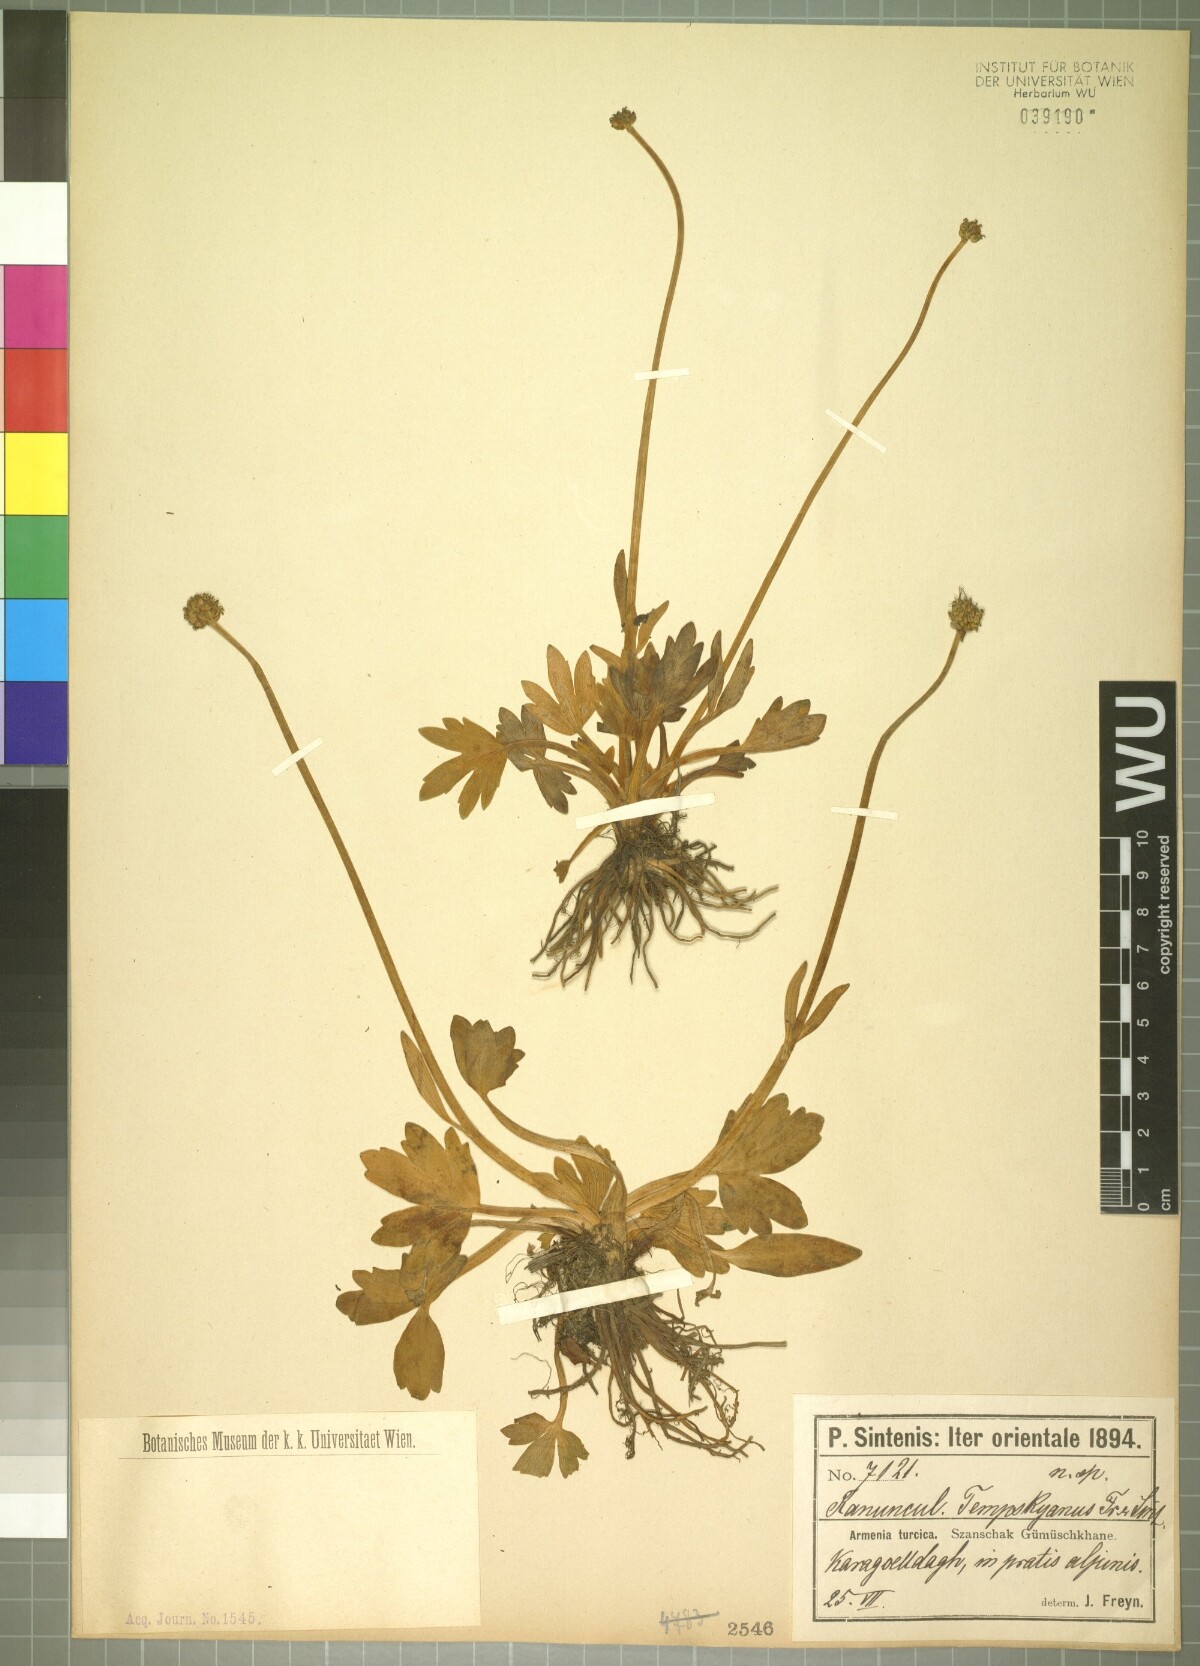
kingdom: Plantae
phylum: Tracheophyta
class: Magnoliopsida
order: Ranunculales
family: Ranunculaceae
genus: Ranunculus
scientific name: Ranunculus obesus
